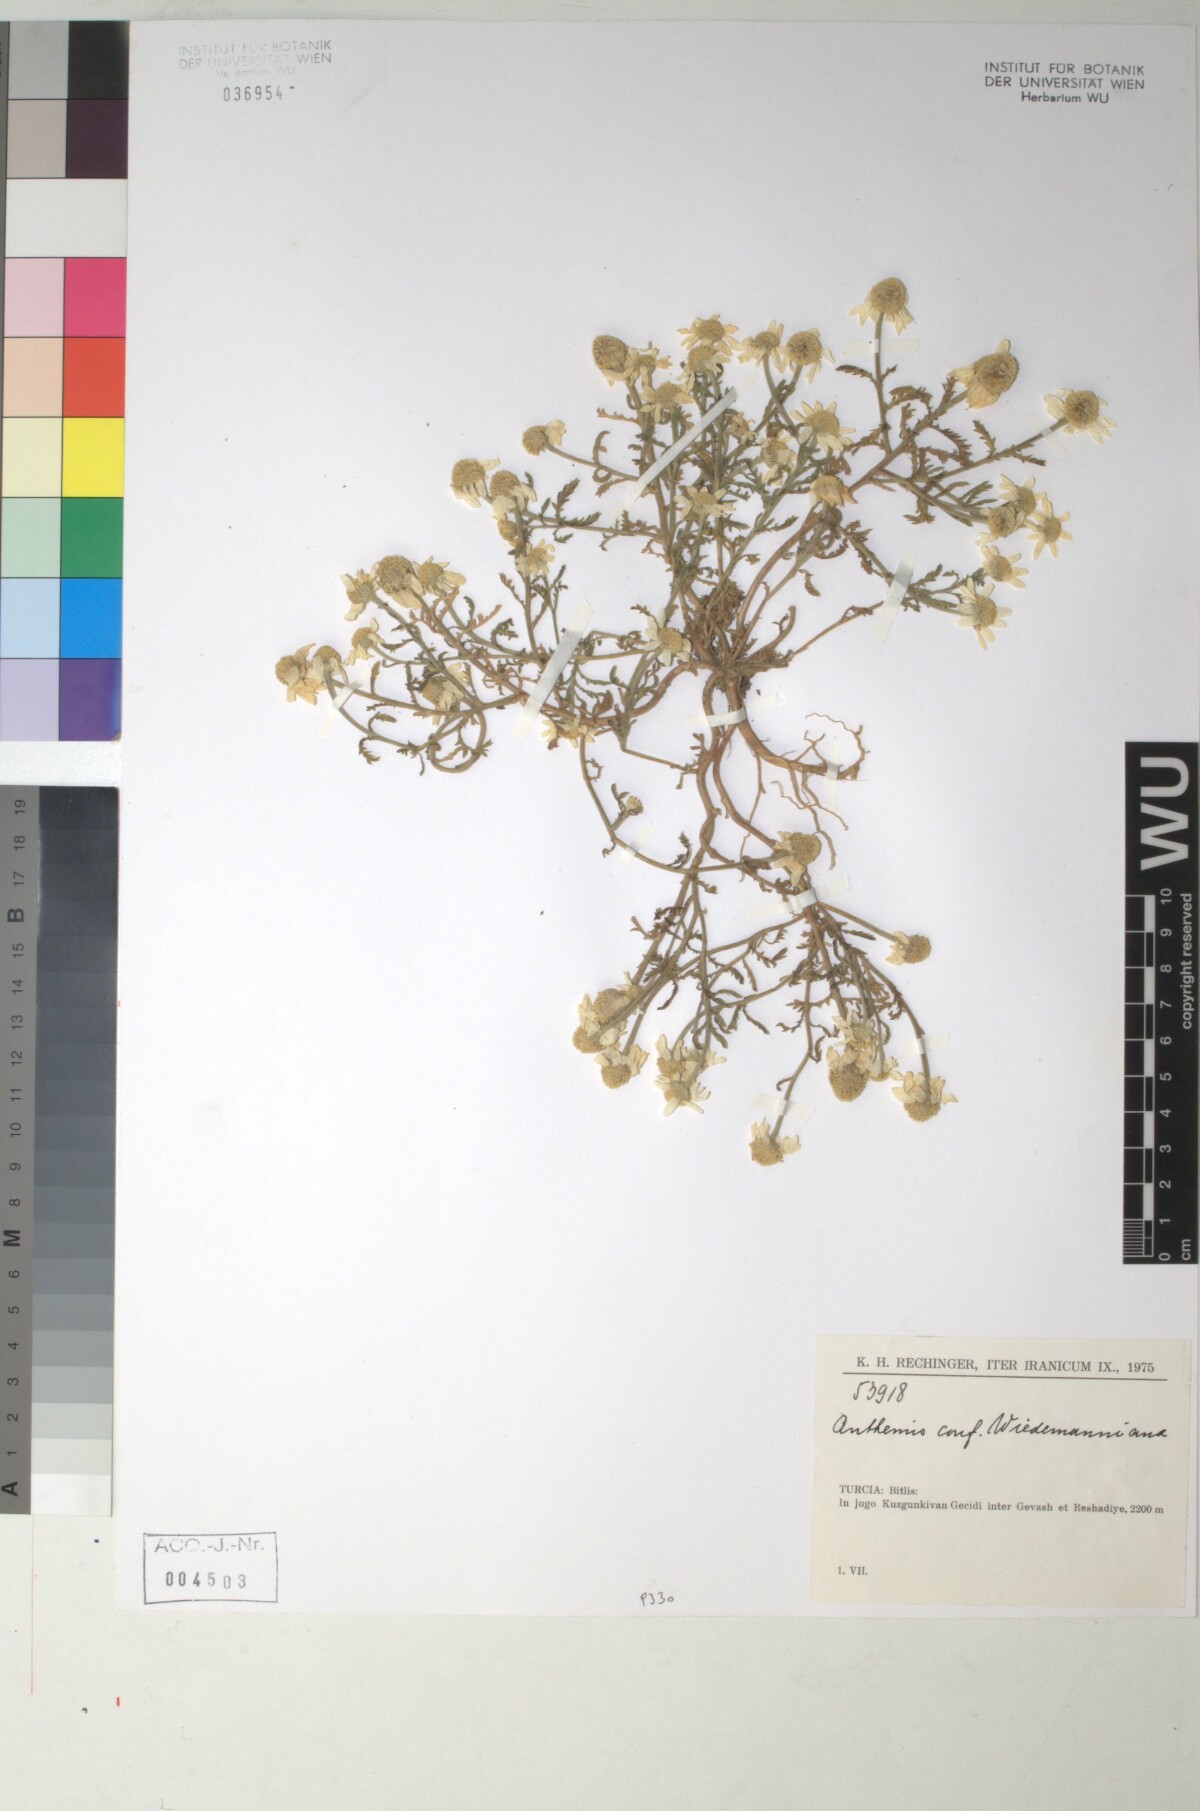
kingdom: Plantae
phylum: Tracheophyta
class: Magnoliopsida
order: Asterales
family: Asteraceae
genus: Cota
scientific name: Cota wiedemanniana
